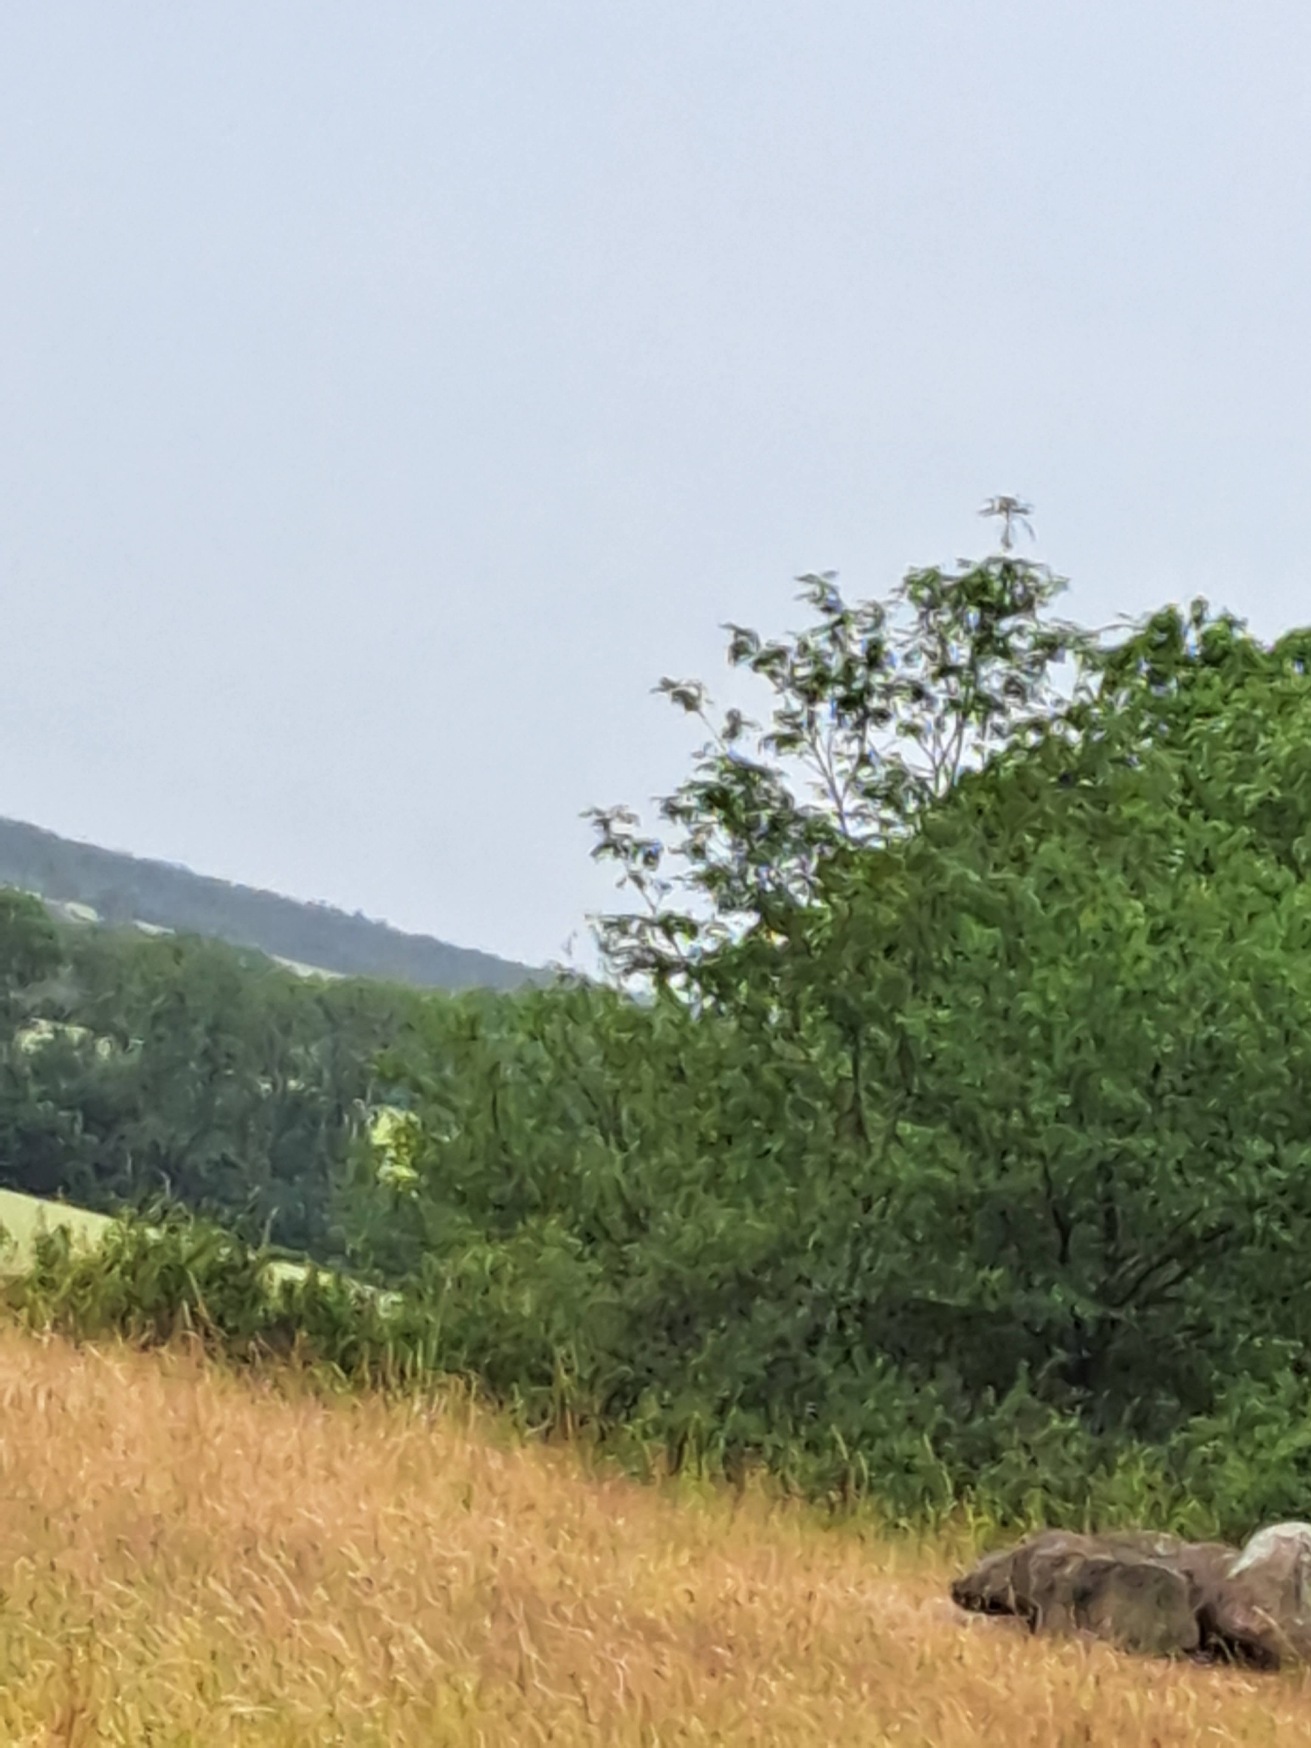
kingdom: Animalia
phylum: Chordata
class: Aves
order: Passeriformes
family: Corvidae
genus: Pica
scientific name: Pica pica
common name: Husskade
